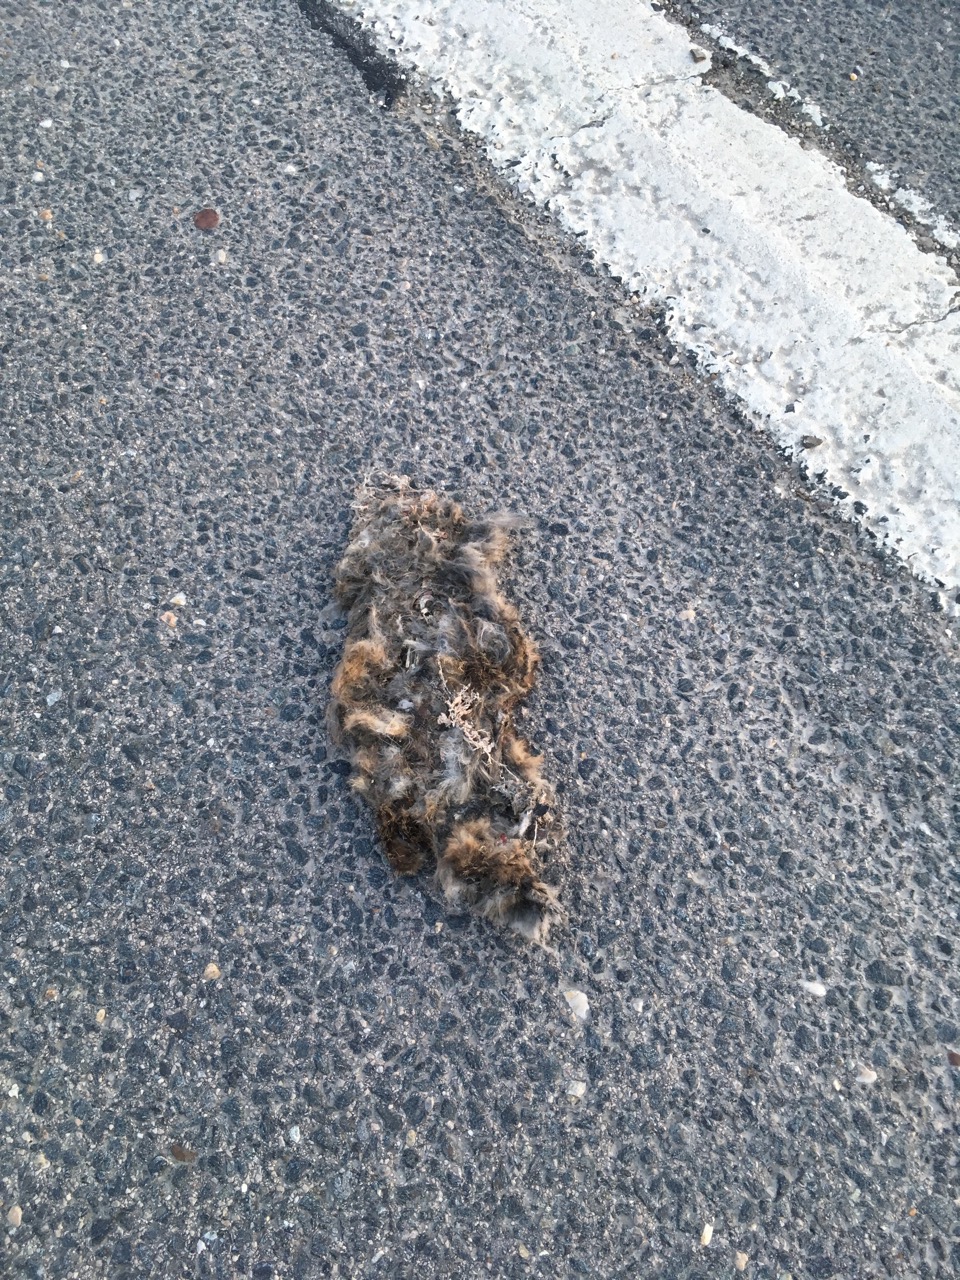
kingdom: Animalia
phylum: Chordata
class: Mammalia
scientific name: Mammalia
